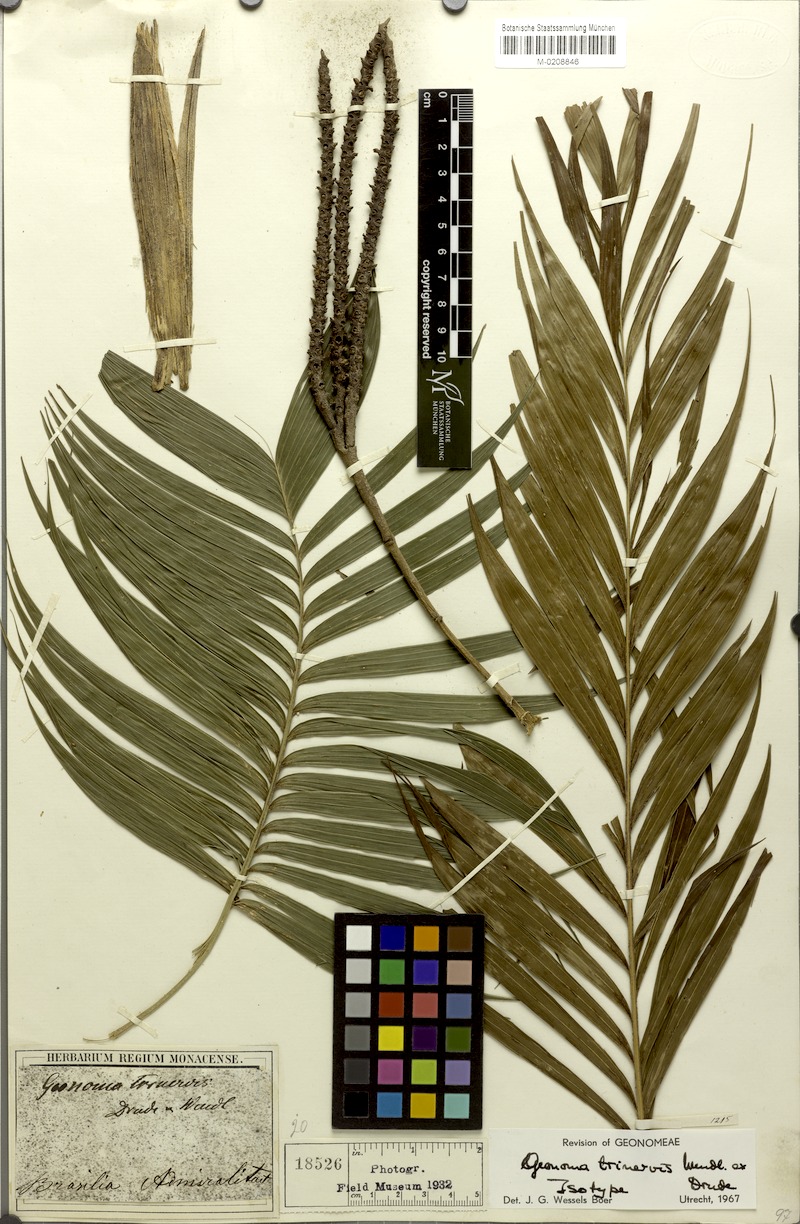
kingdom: Plantae
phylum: Tracheophyta
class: Liliopsida
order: Arecales
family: Arecaceae
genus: Geonoma
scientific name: Geonoma pohliana
